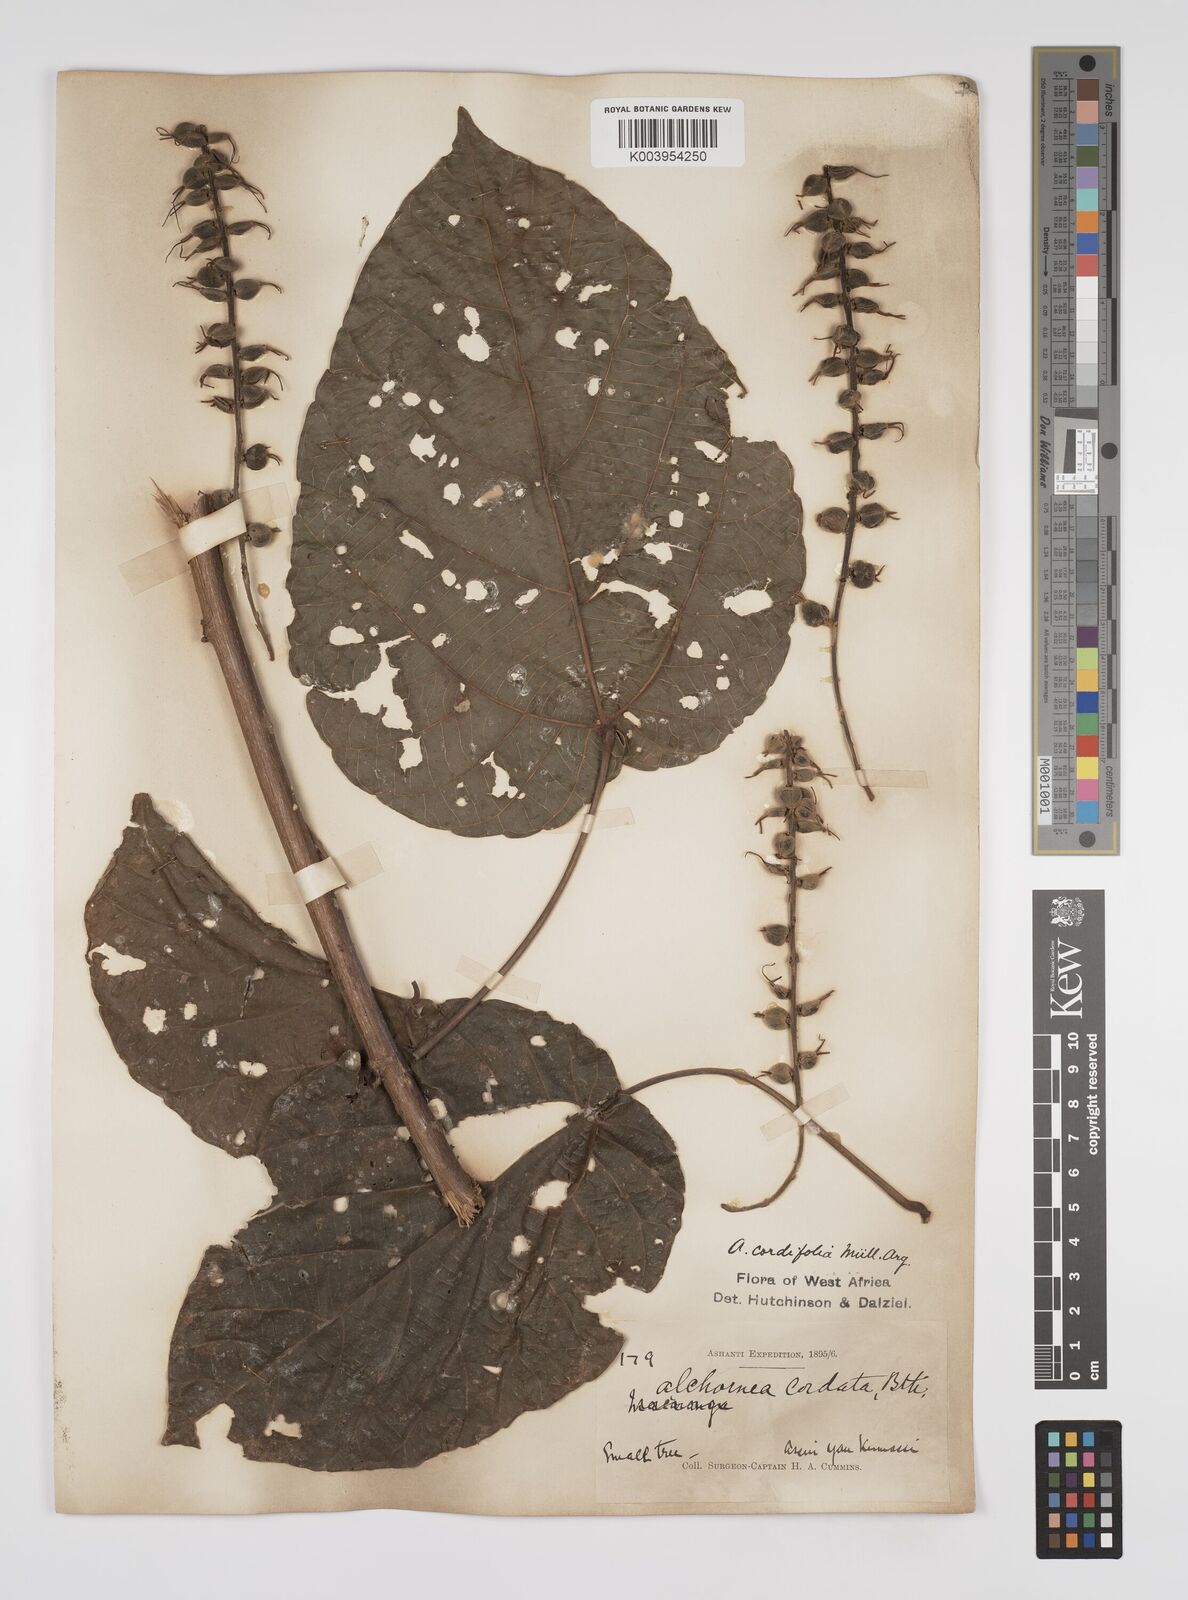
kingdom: Plantae
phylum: Tracheophyta
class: Magnoliopsida
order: Malpighiales
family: Euphorbiaceae
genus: Alchornea
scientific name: Alchornea cordifolia
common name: Christmasbush
